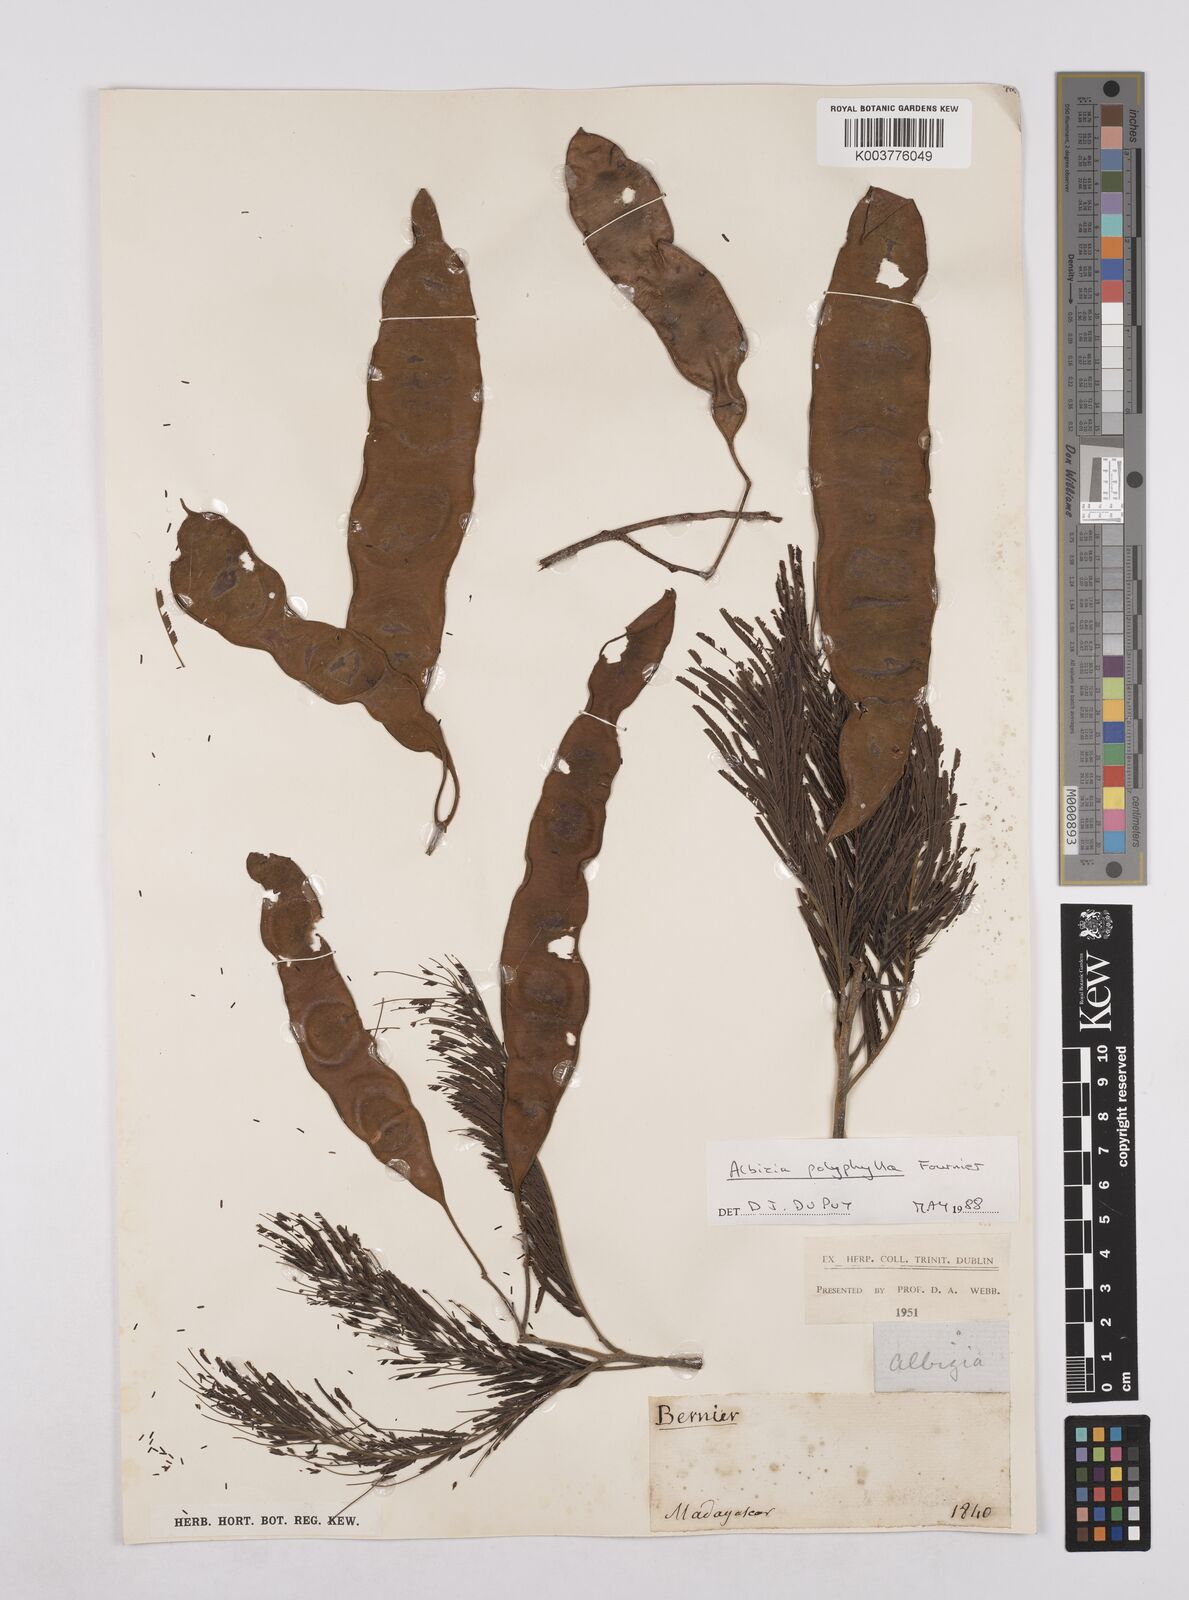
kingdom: Plantae
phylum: Tracheophyta
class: Magnoliopsida
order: Fabales
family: Fabaceae
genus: Albizia
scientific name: Albizia polyphylla
